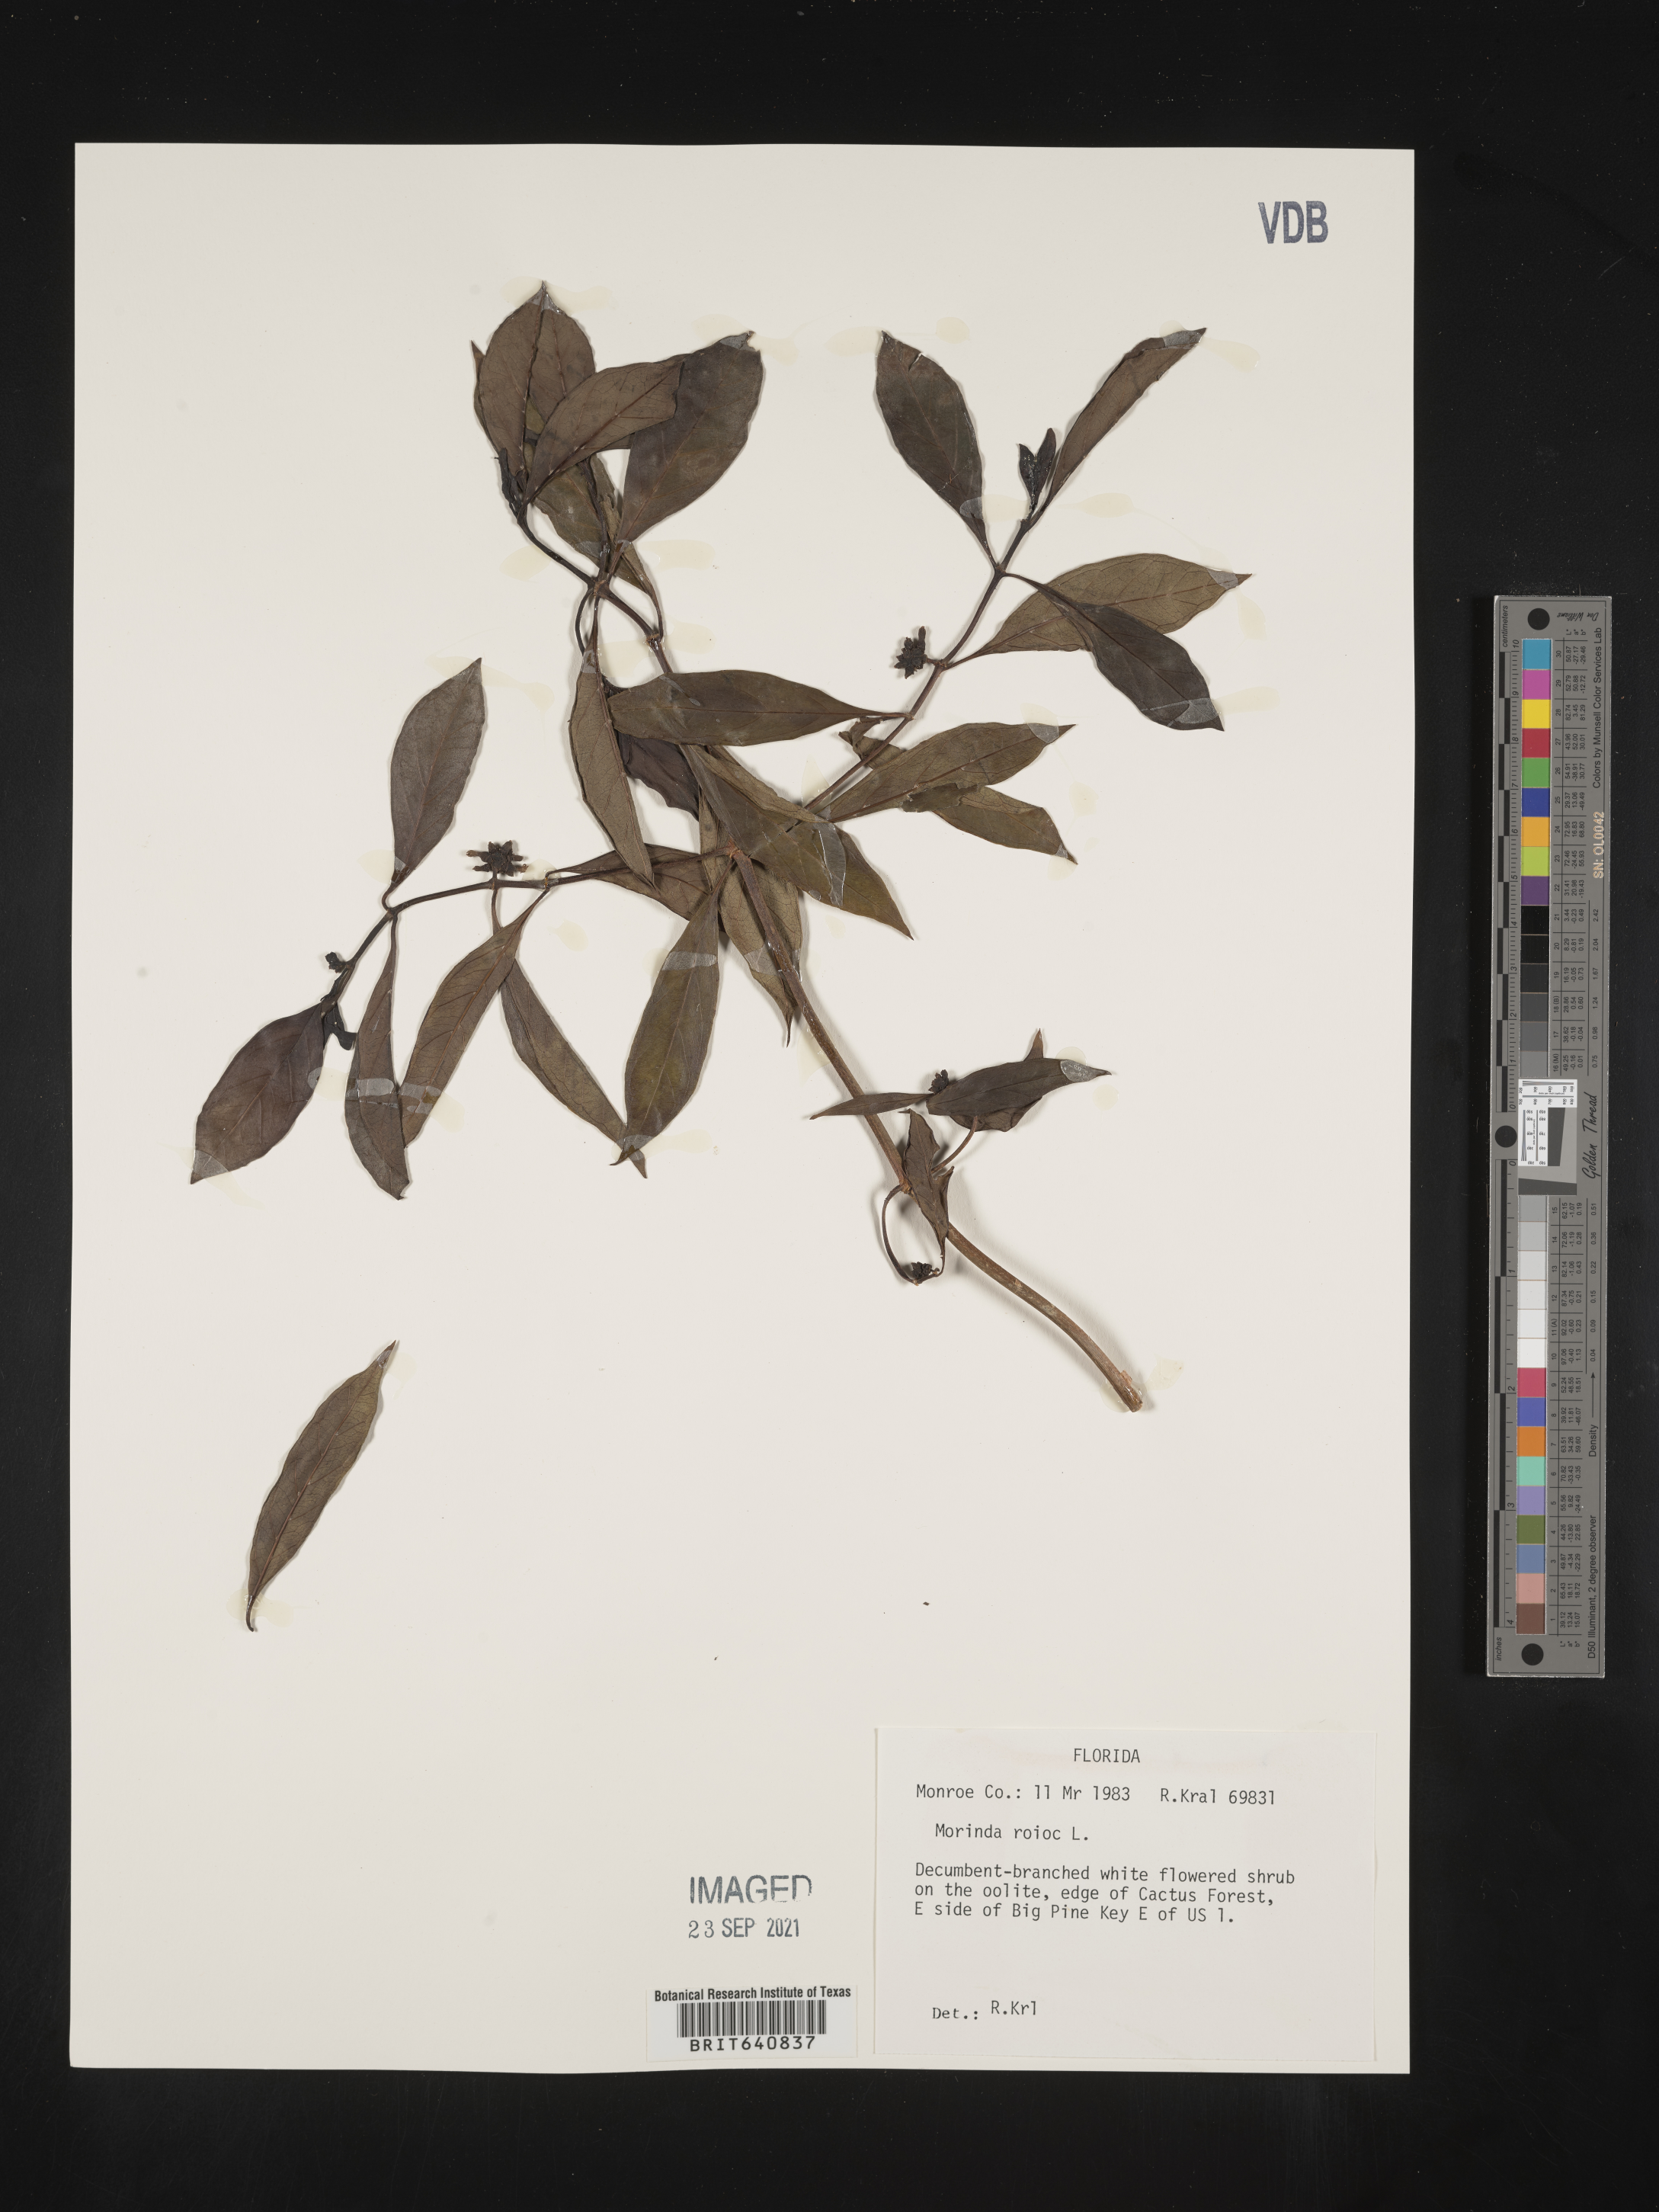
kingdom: Plantae
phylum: Tracheophyta
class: Magnoliopsida
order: Gentianales
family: Rubiaceae
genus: Morinda
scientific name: Morinda royoc
